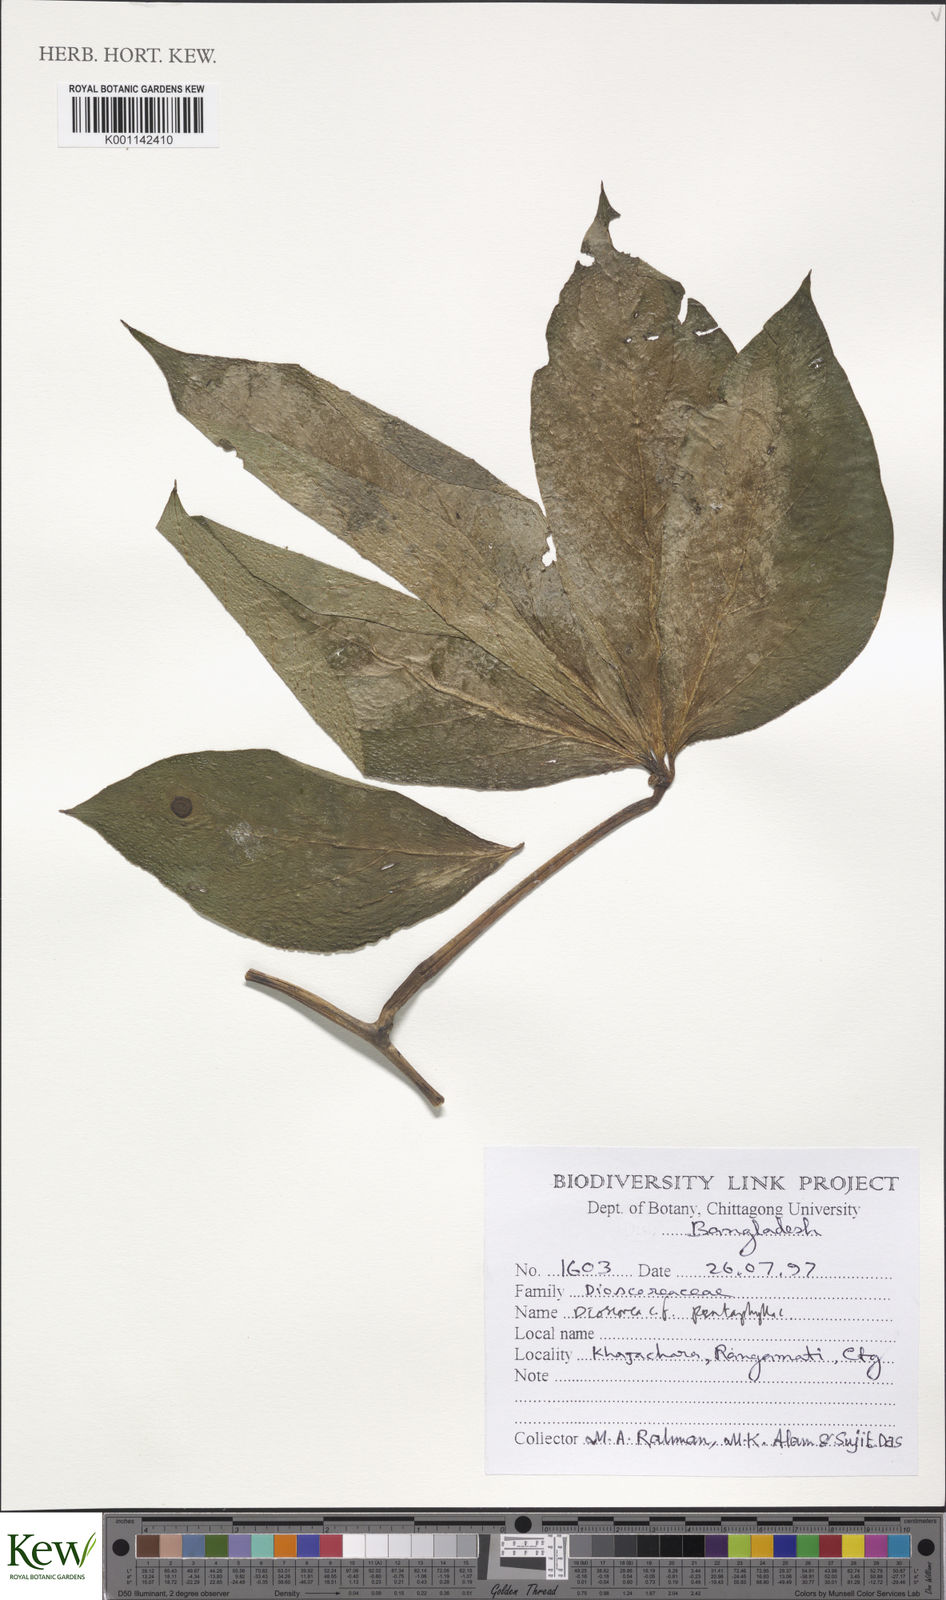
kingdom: Plantae
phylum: Tracheophyta
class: Liliopsida
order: Dioscoreales
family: Dioscoreaceae
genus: Dioscorea
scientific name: Dioscorea pentaphylla
